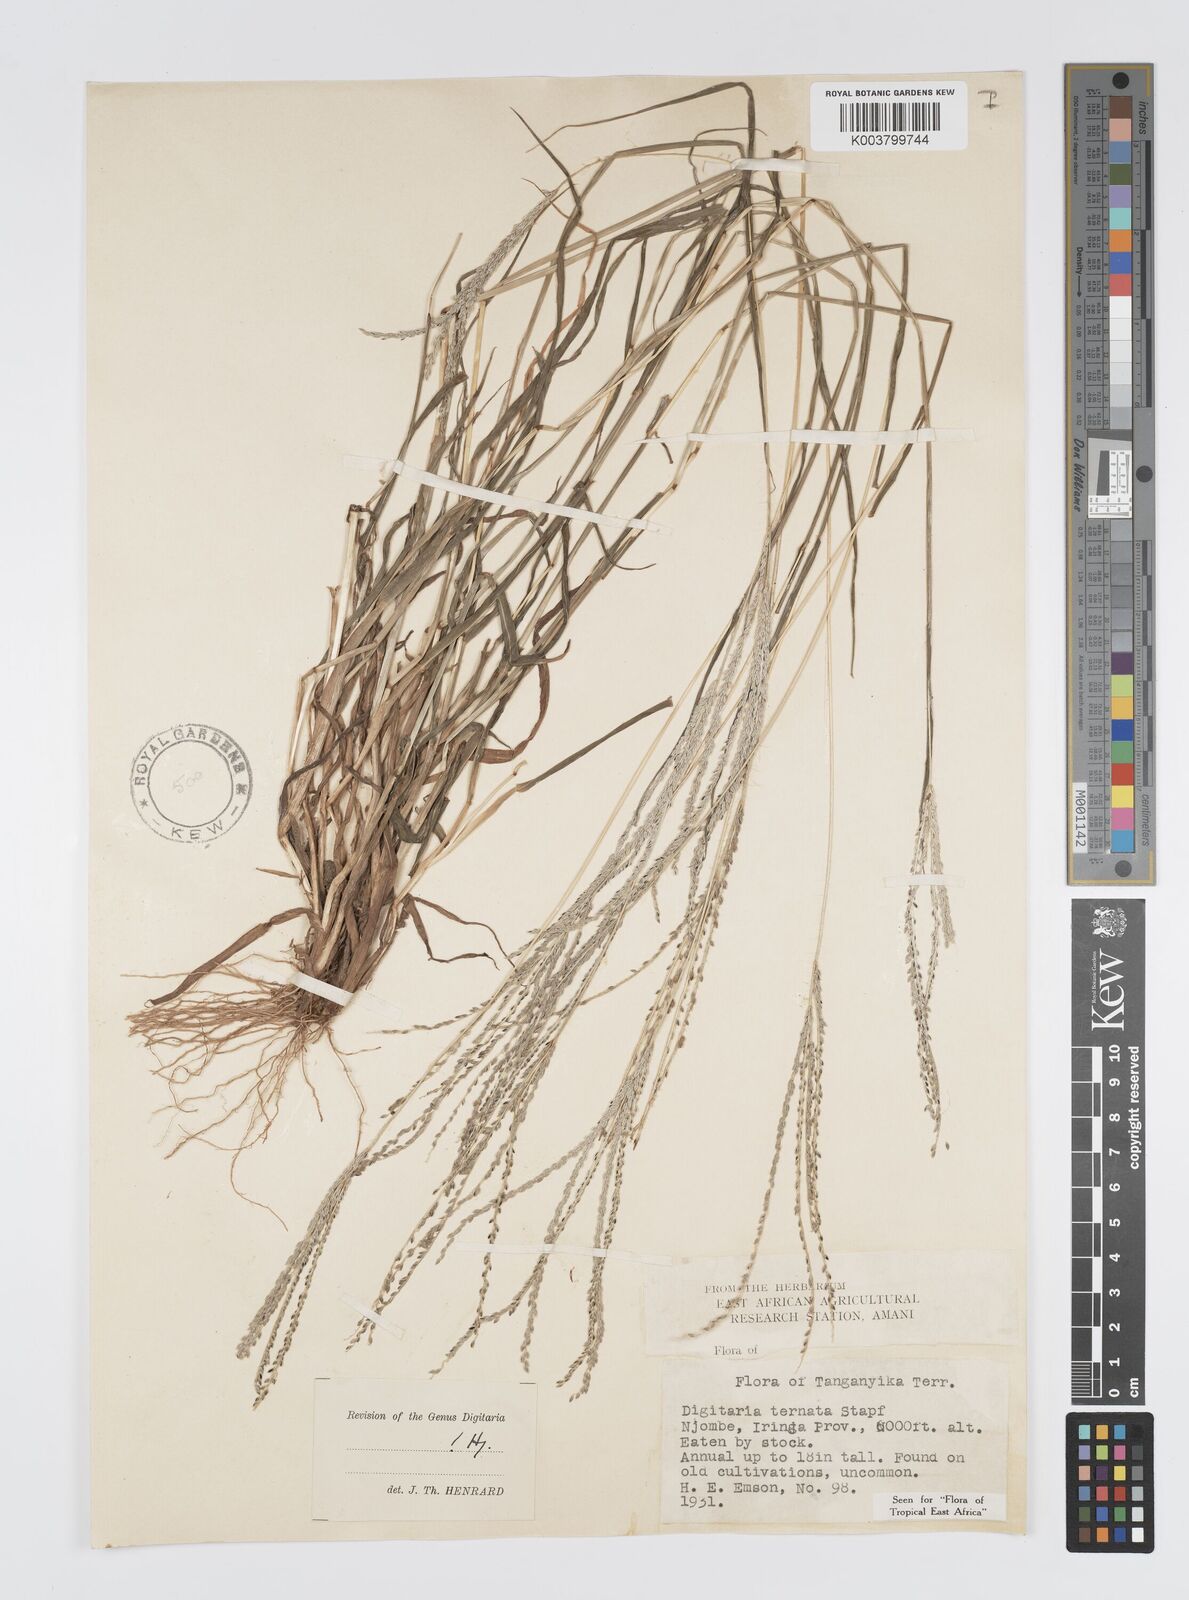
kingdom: Plantae
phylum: Tracheophyta
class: Liliopsida
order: Poales
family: Poaceae
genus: Digitaria
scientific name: Digitaria ternata
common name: Blackseed crabgrass
